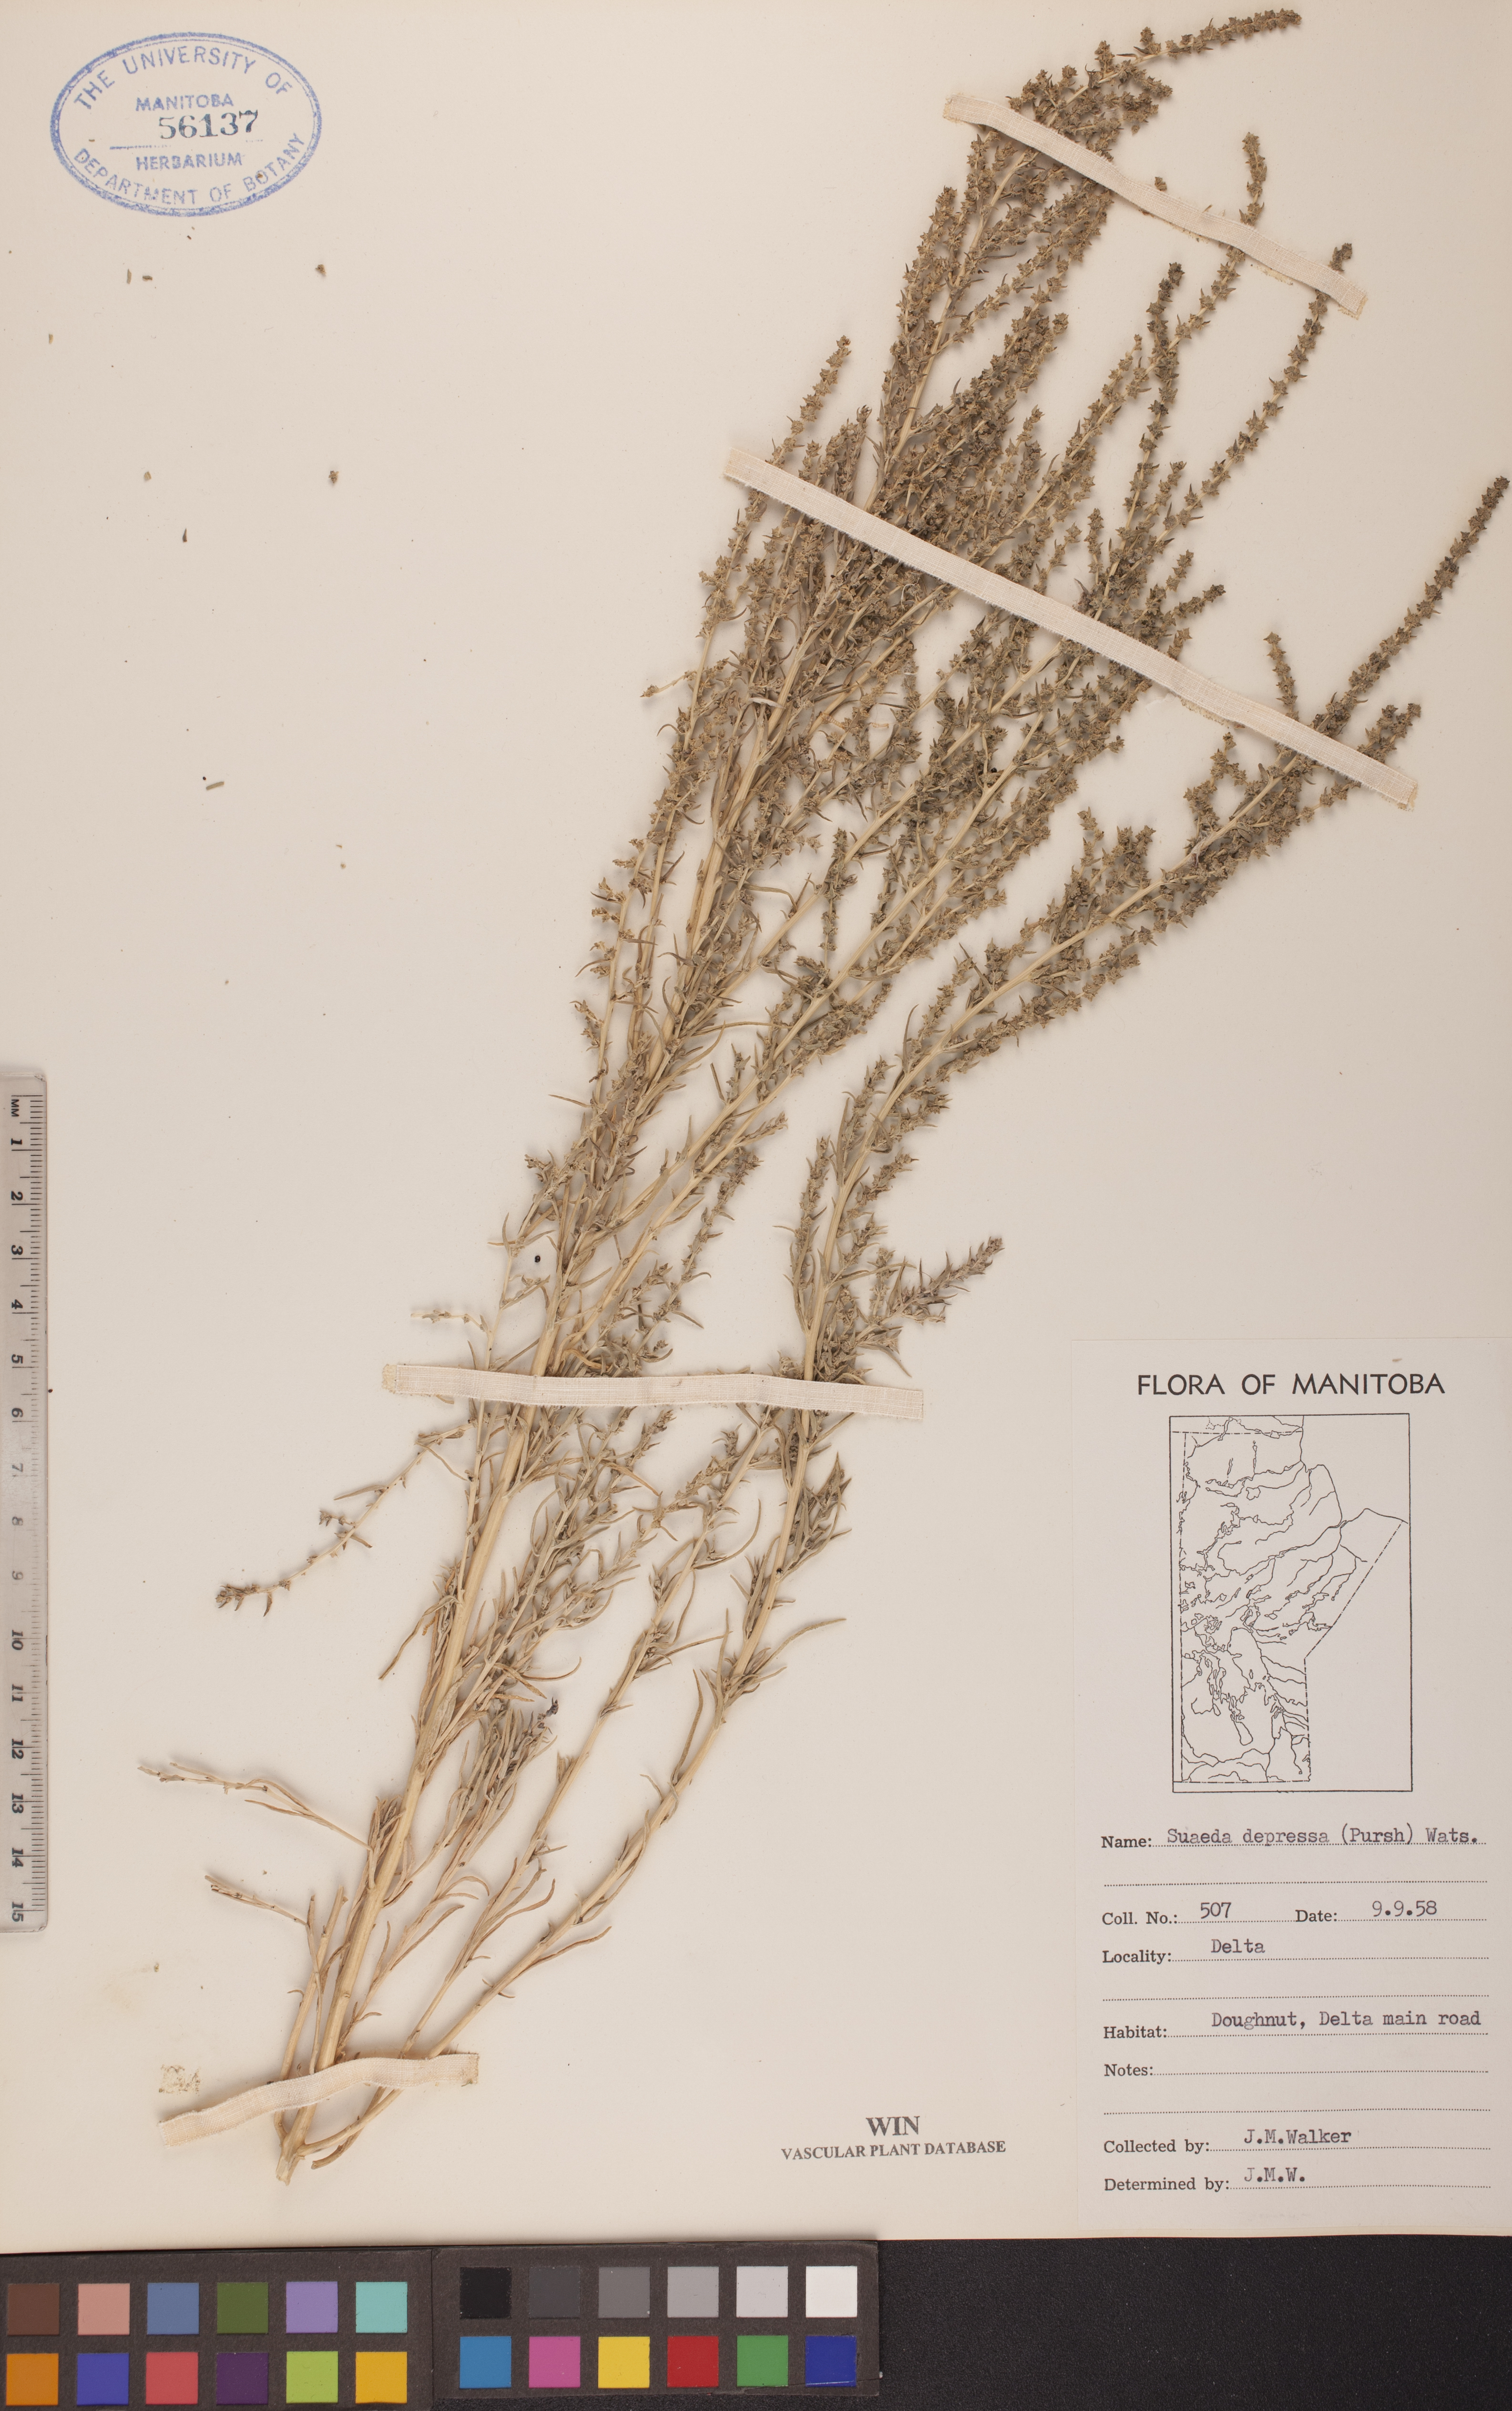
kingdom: Plantae
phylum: Tracheophyta
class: Magnoliopsida
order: Caryophyllales
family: Amaranthaceae
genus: Suaeda
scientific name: Suaeda calceoliformis
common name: Pursh's seepweed
